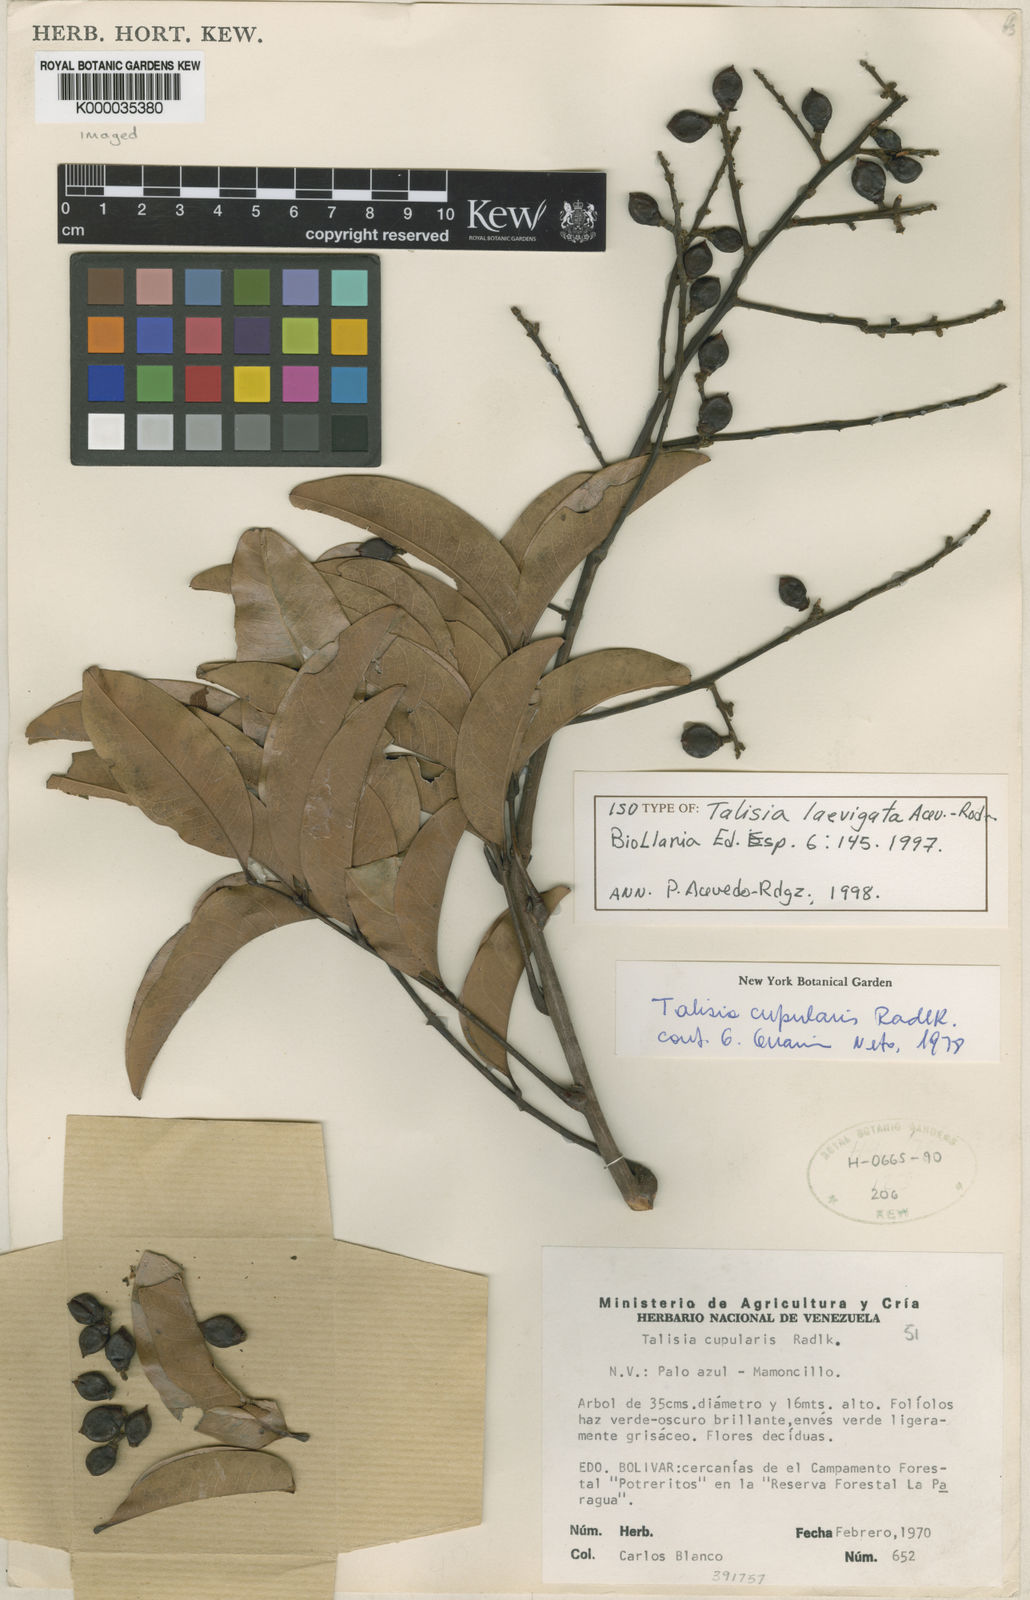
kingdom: Plantae
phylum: Tracheophyta
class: Magnoliopsida
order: Sapindales
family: Sapindaceae
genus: Talisia
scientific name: Talisia laevigata
